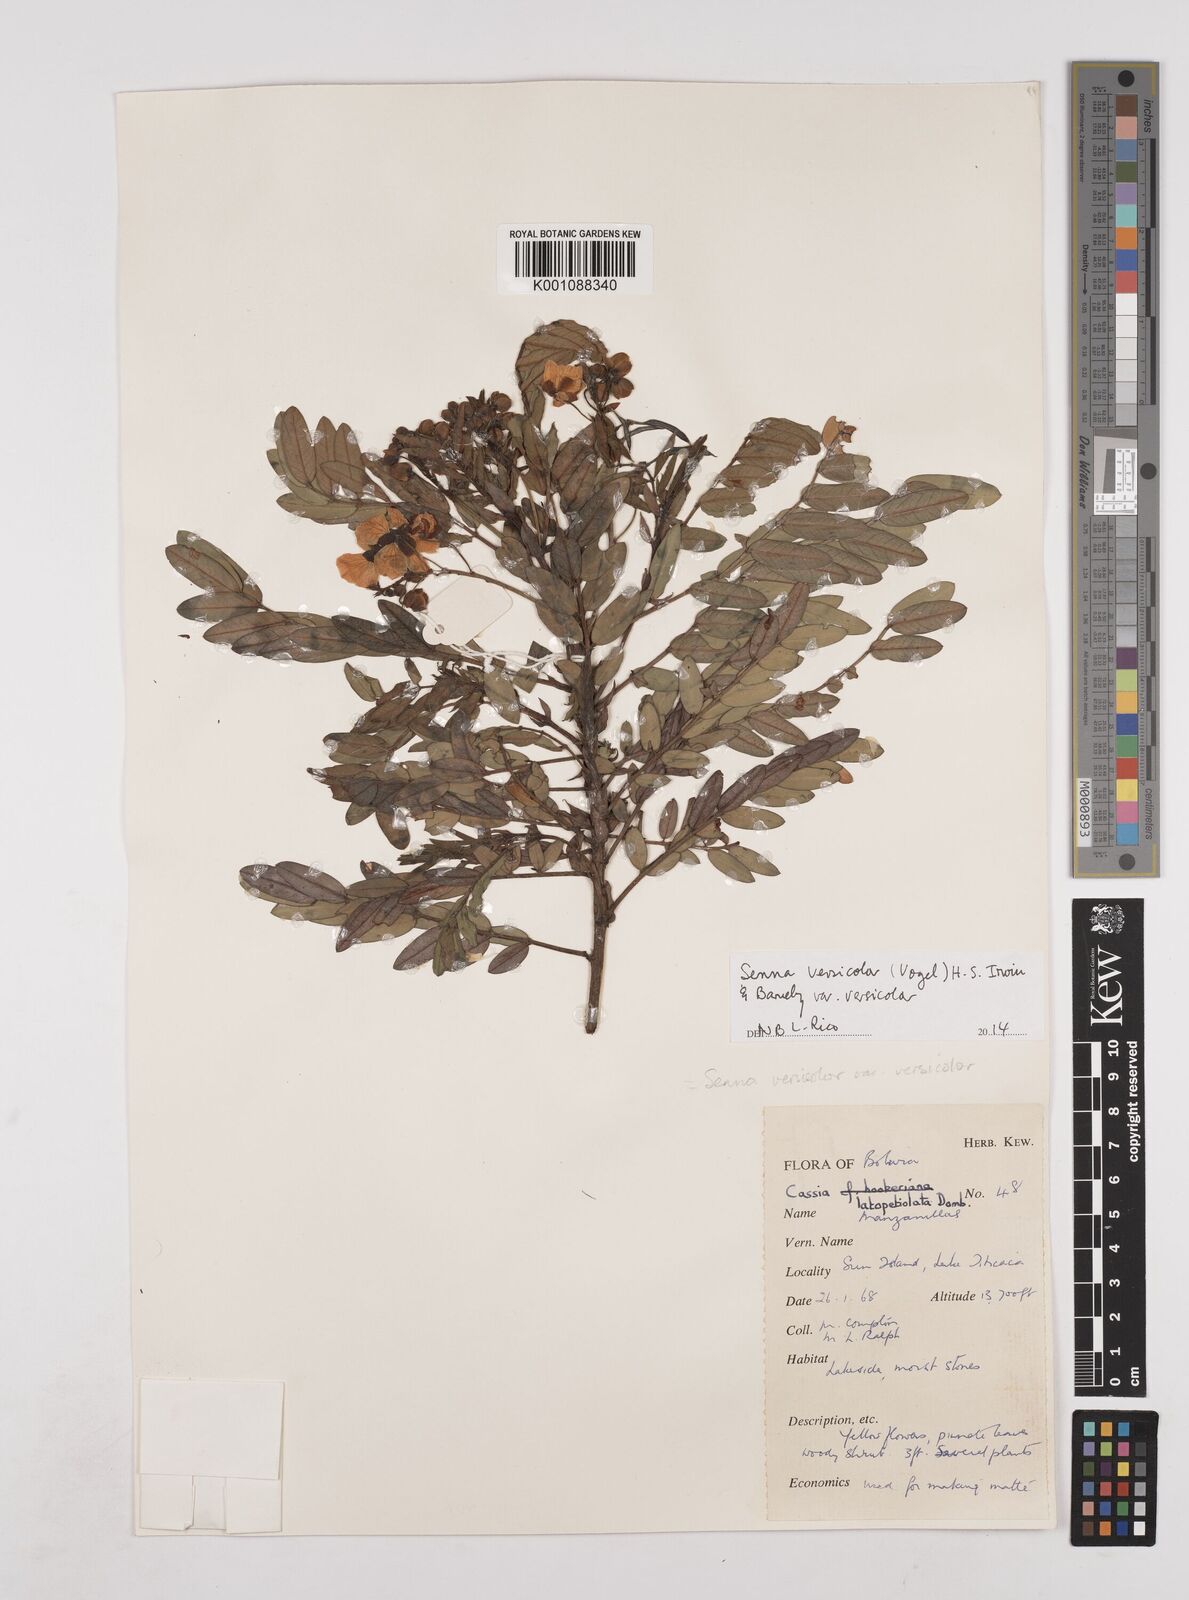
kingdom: Plantae
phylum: Tracheophyta
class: Magnoliopsida
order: Fabales
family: Fabaceae
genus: Senna
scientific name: Senna versicolor
